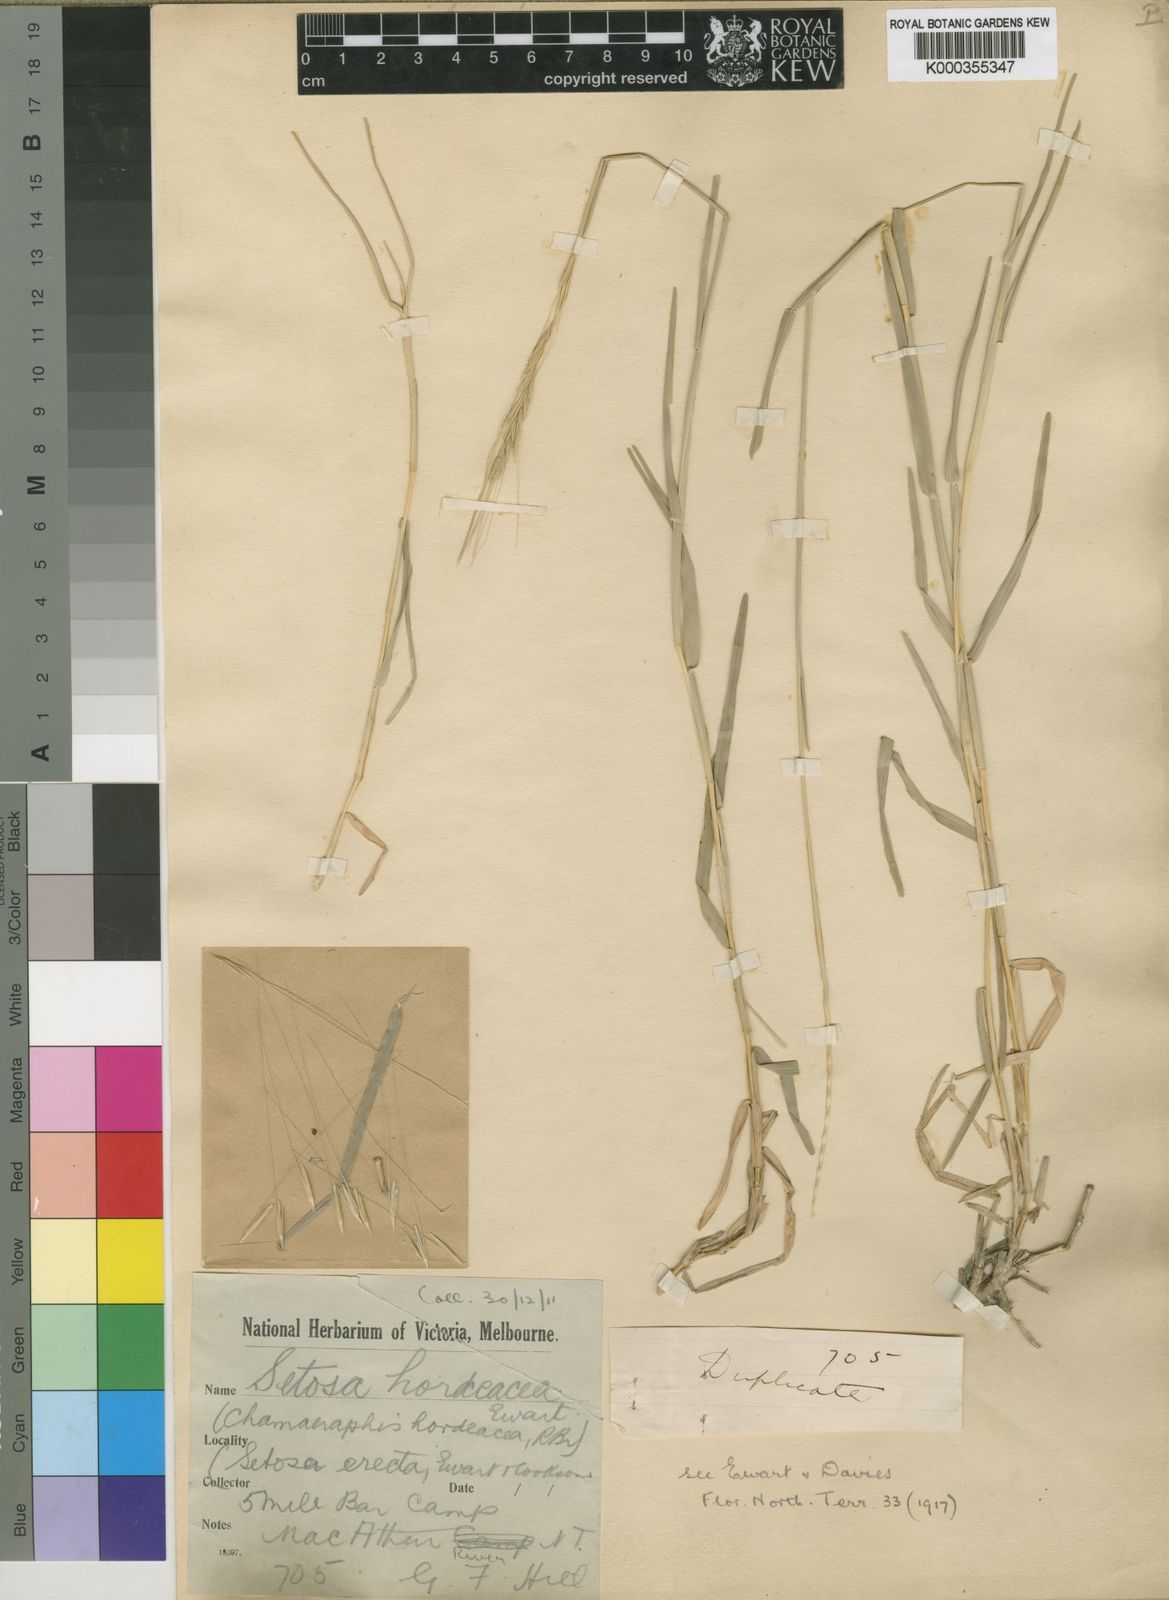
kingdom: Plantae
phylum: Tracheophyta
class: Liliopsida
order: Poales
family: Poaceae
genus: Chamaeraphis
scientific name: Chamaeraphis hordeacea
